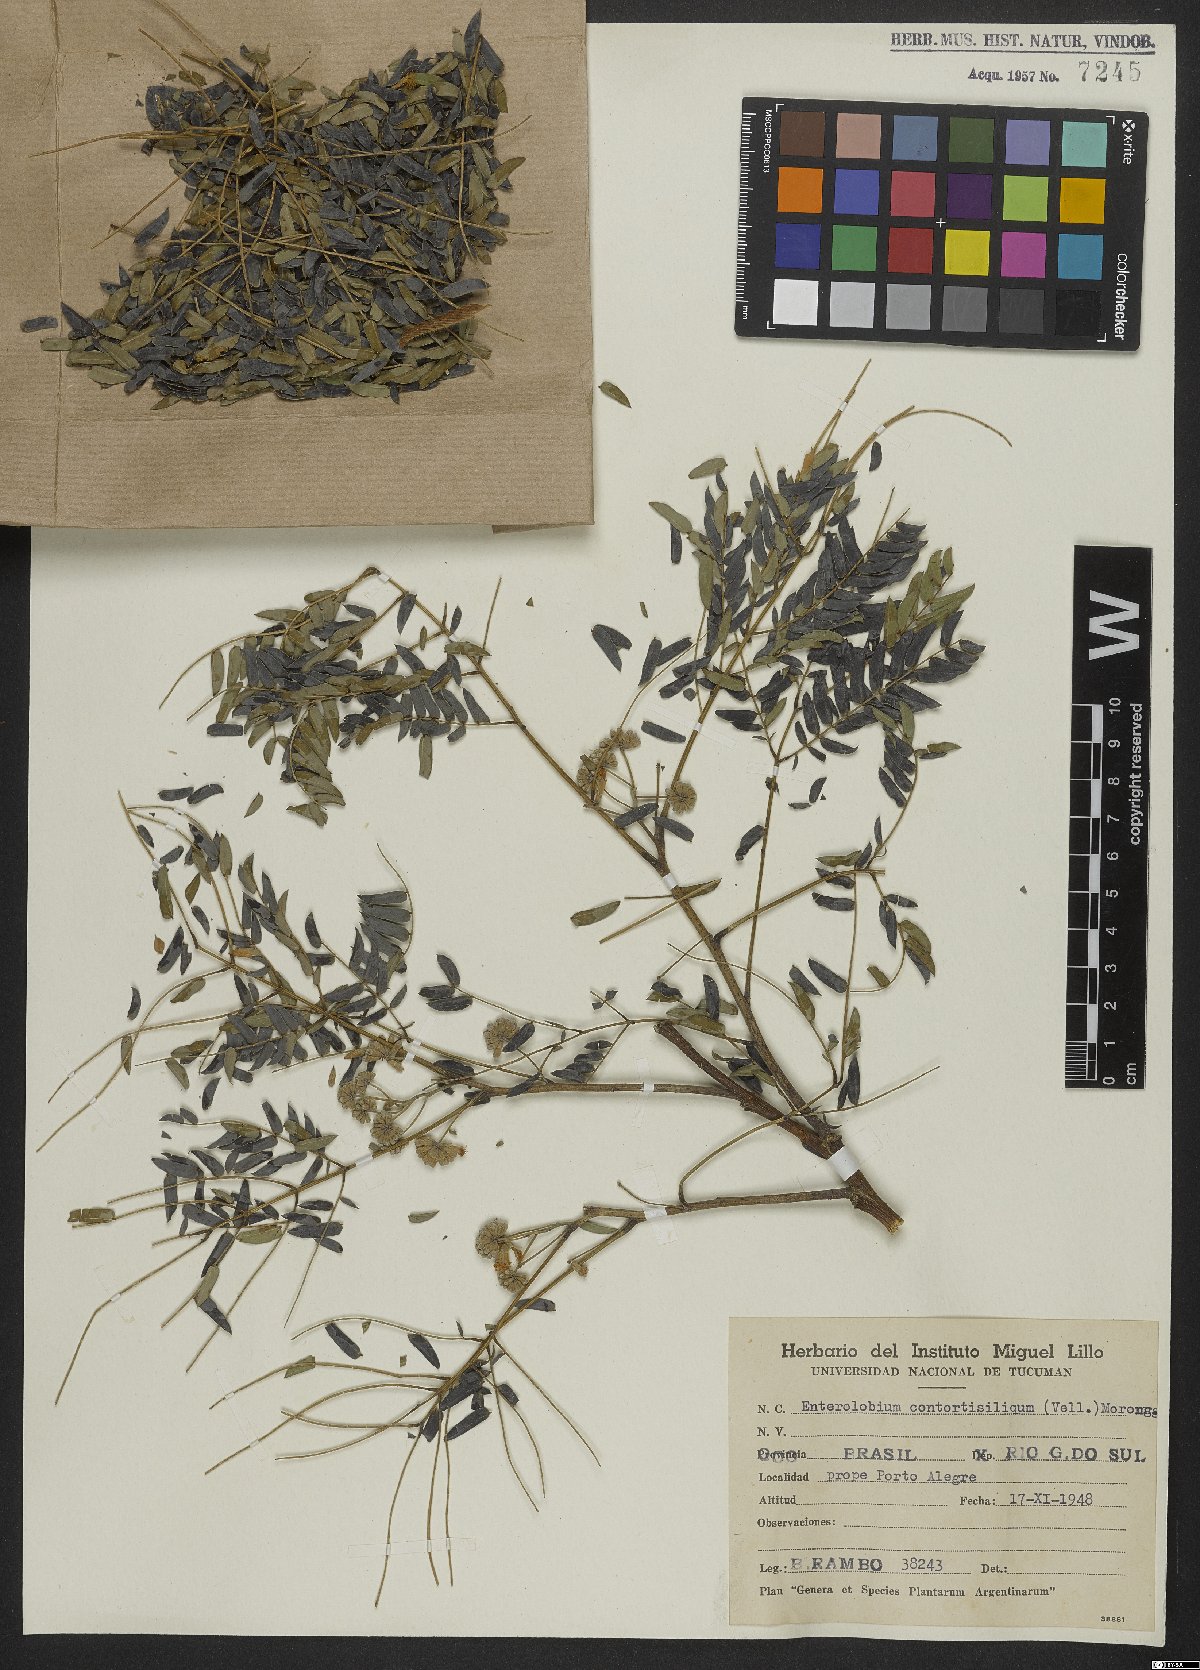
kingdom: Plantae
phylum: Tracheophyta
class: Magnoliopsida
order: Fabales
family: Fabaceae
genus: Enterolobium
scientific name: Enterolobium contortisiliquum
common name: Pacara earpod tree
